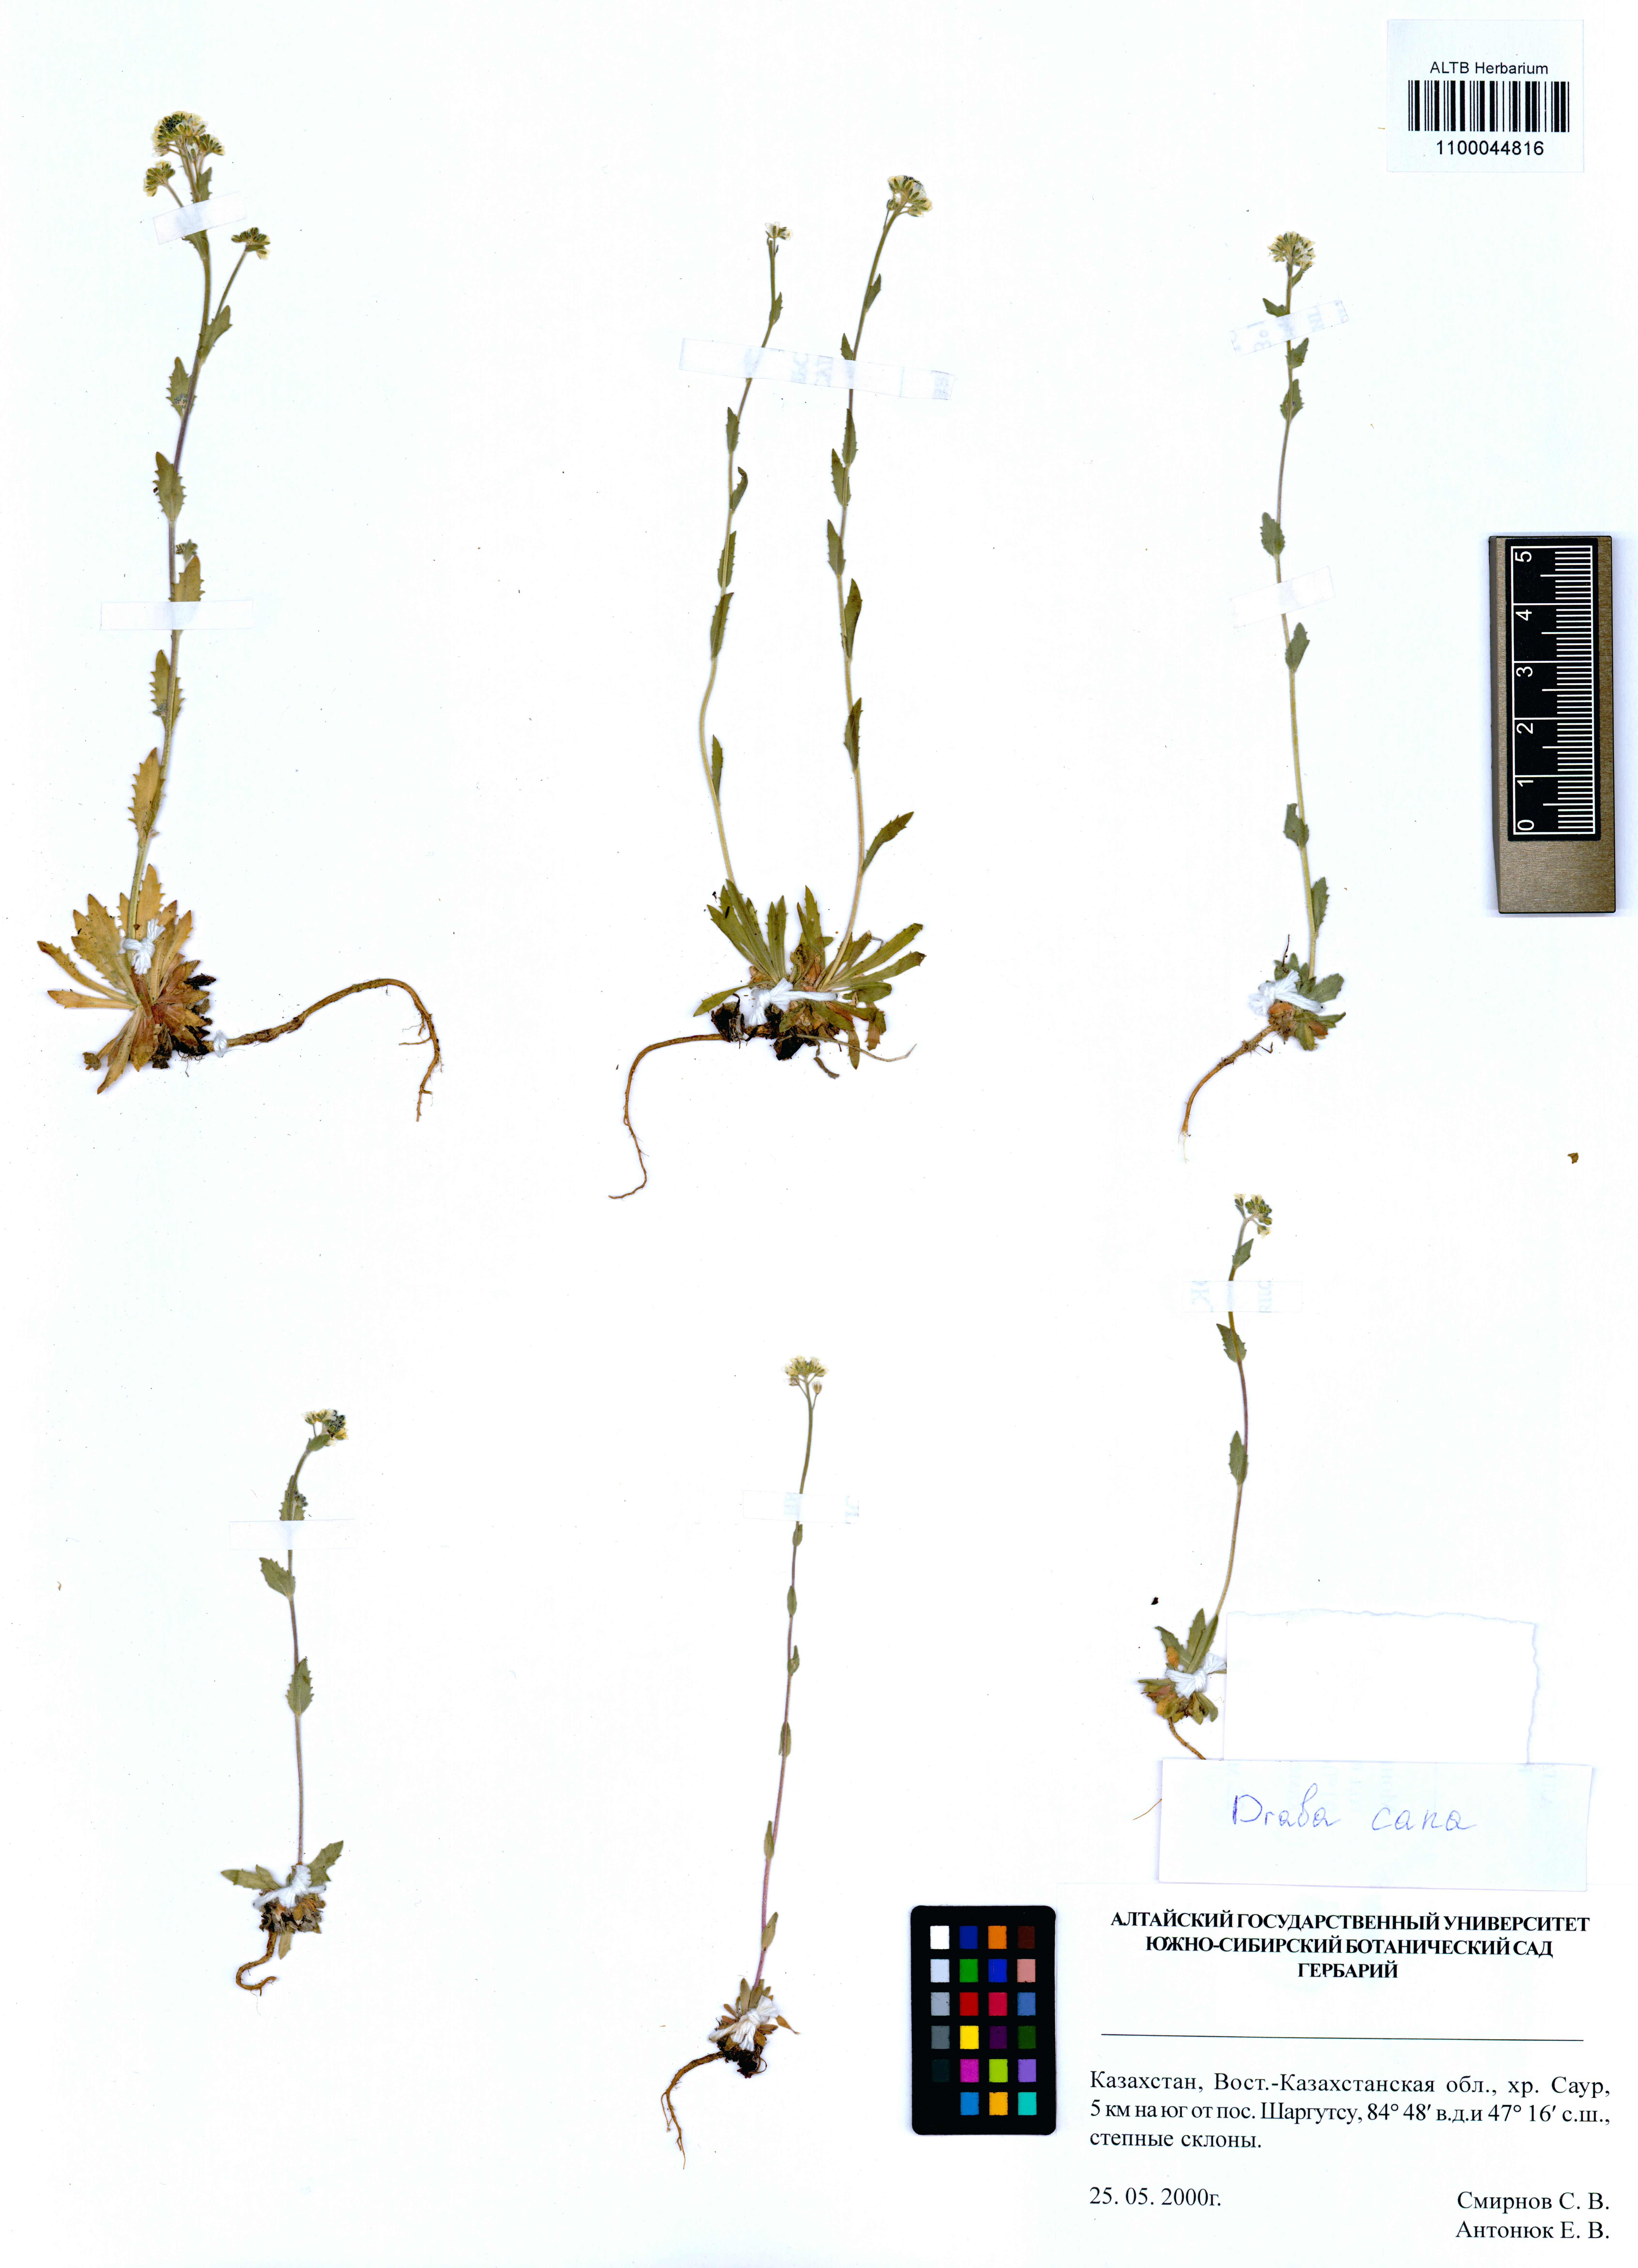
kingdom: Plantae
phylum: Tracheophyta
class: Magnoliopsida
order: Brassicales
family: Brassicaceae
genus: Draba
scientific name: Draba cana
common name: Hoary draba
